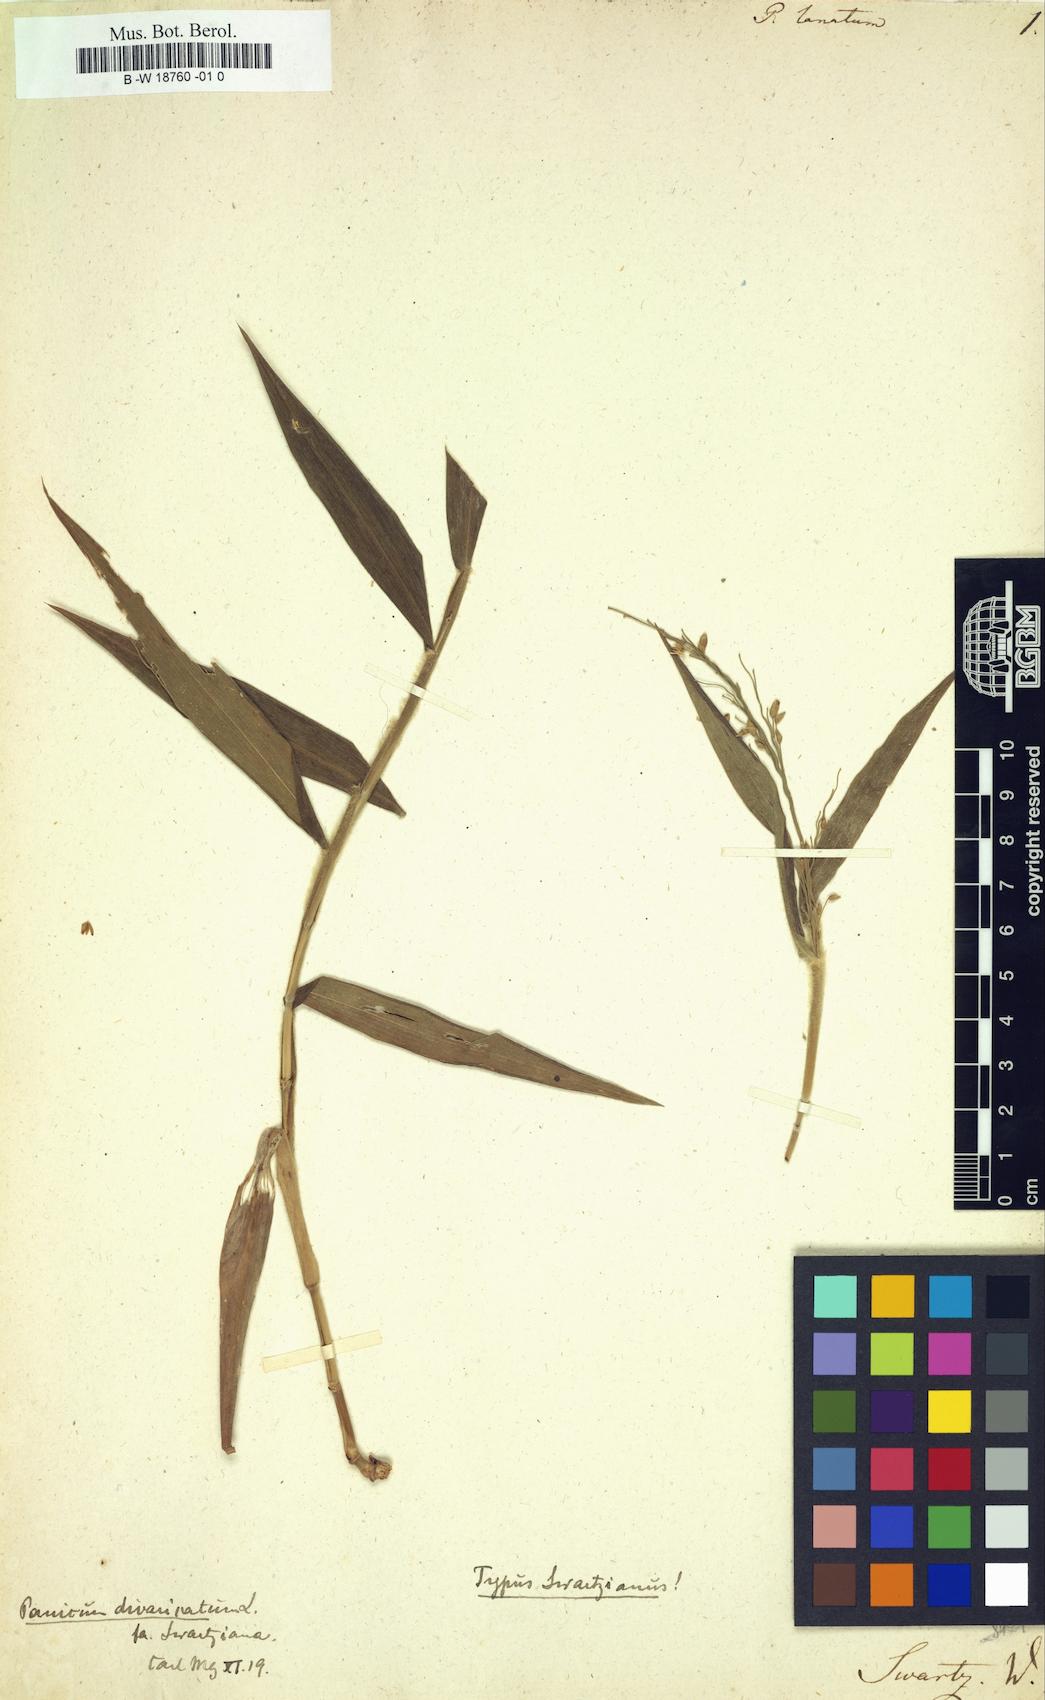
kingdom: Plantae
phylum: Tracheophyta
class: Liliopsida
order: Poales
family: Poaceae
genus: Digitaria
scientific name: Digitaria insularis
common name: Sourgrass
